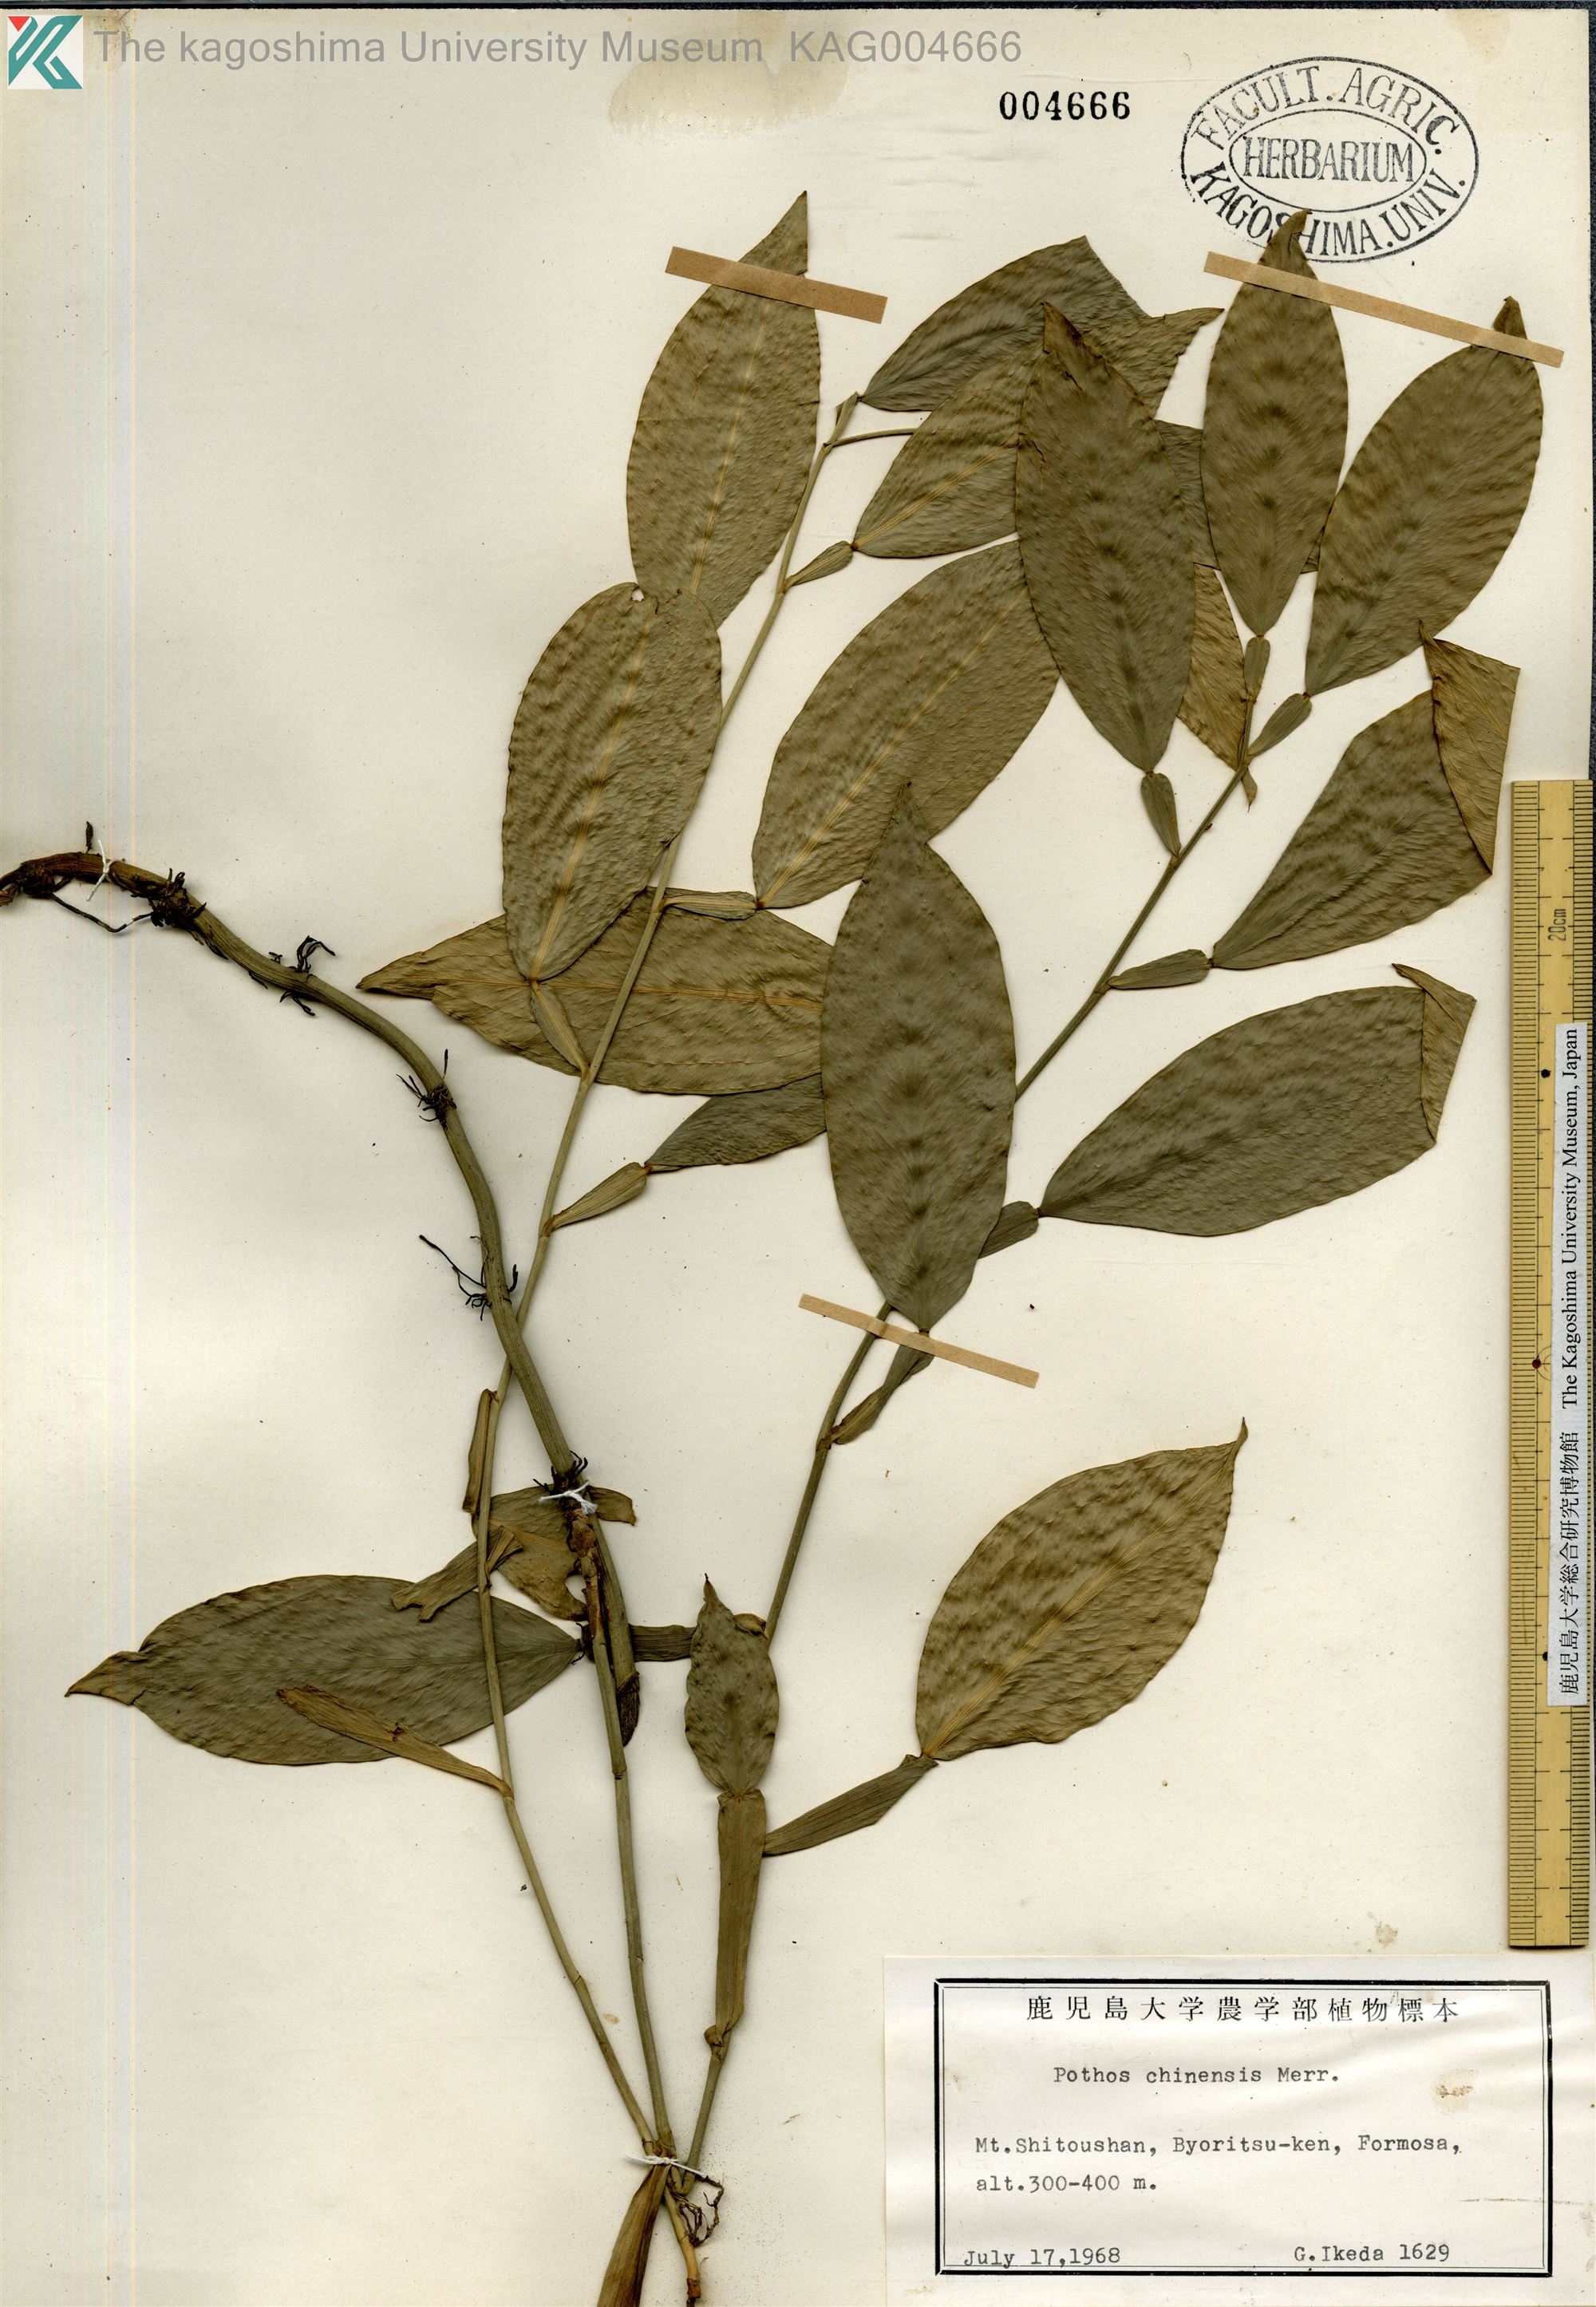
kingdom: Plantae
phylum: Tracheophyta
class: Liliopsida
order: Alismatales
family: Araceae
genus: Pothos
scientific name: Pothos chinensis
